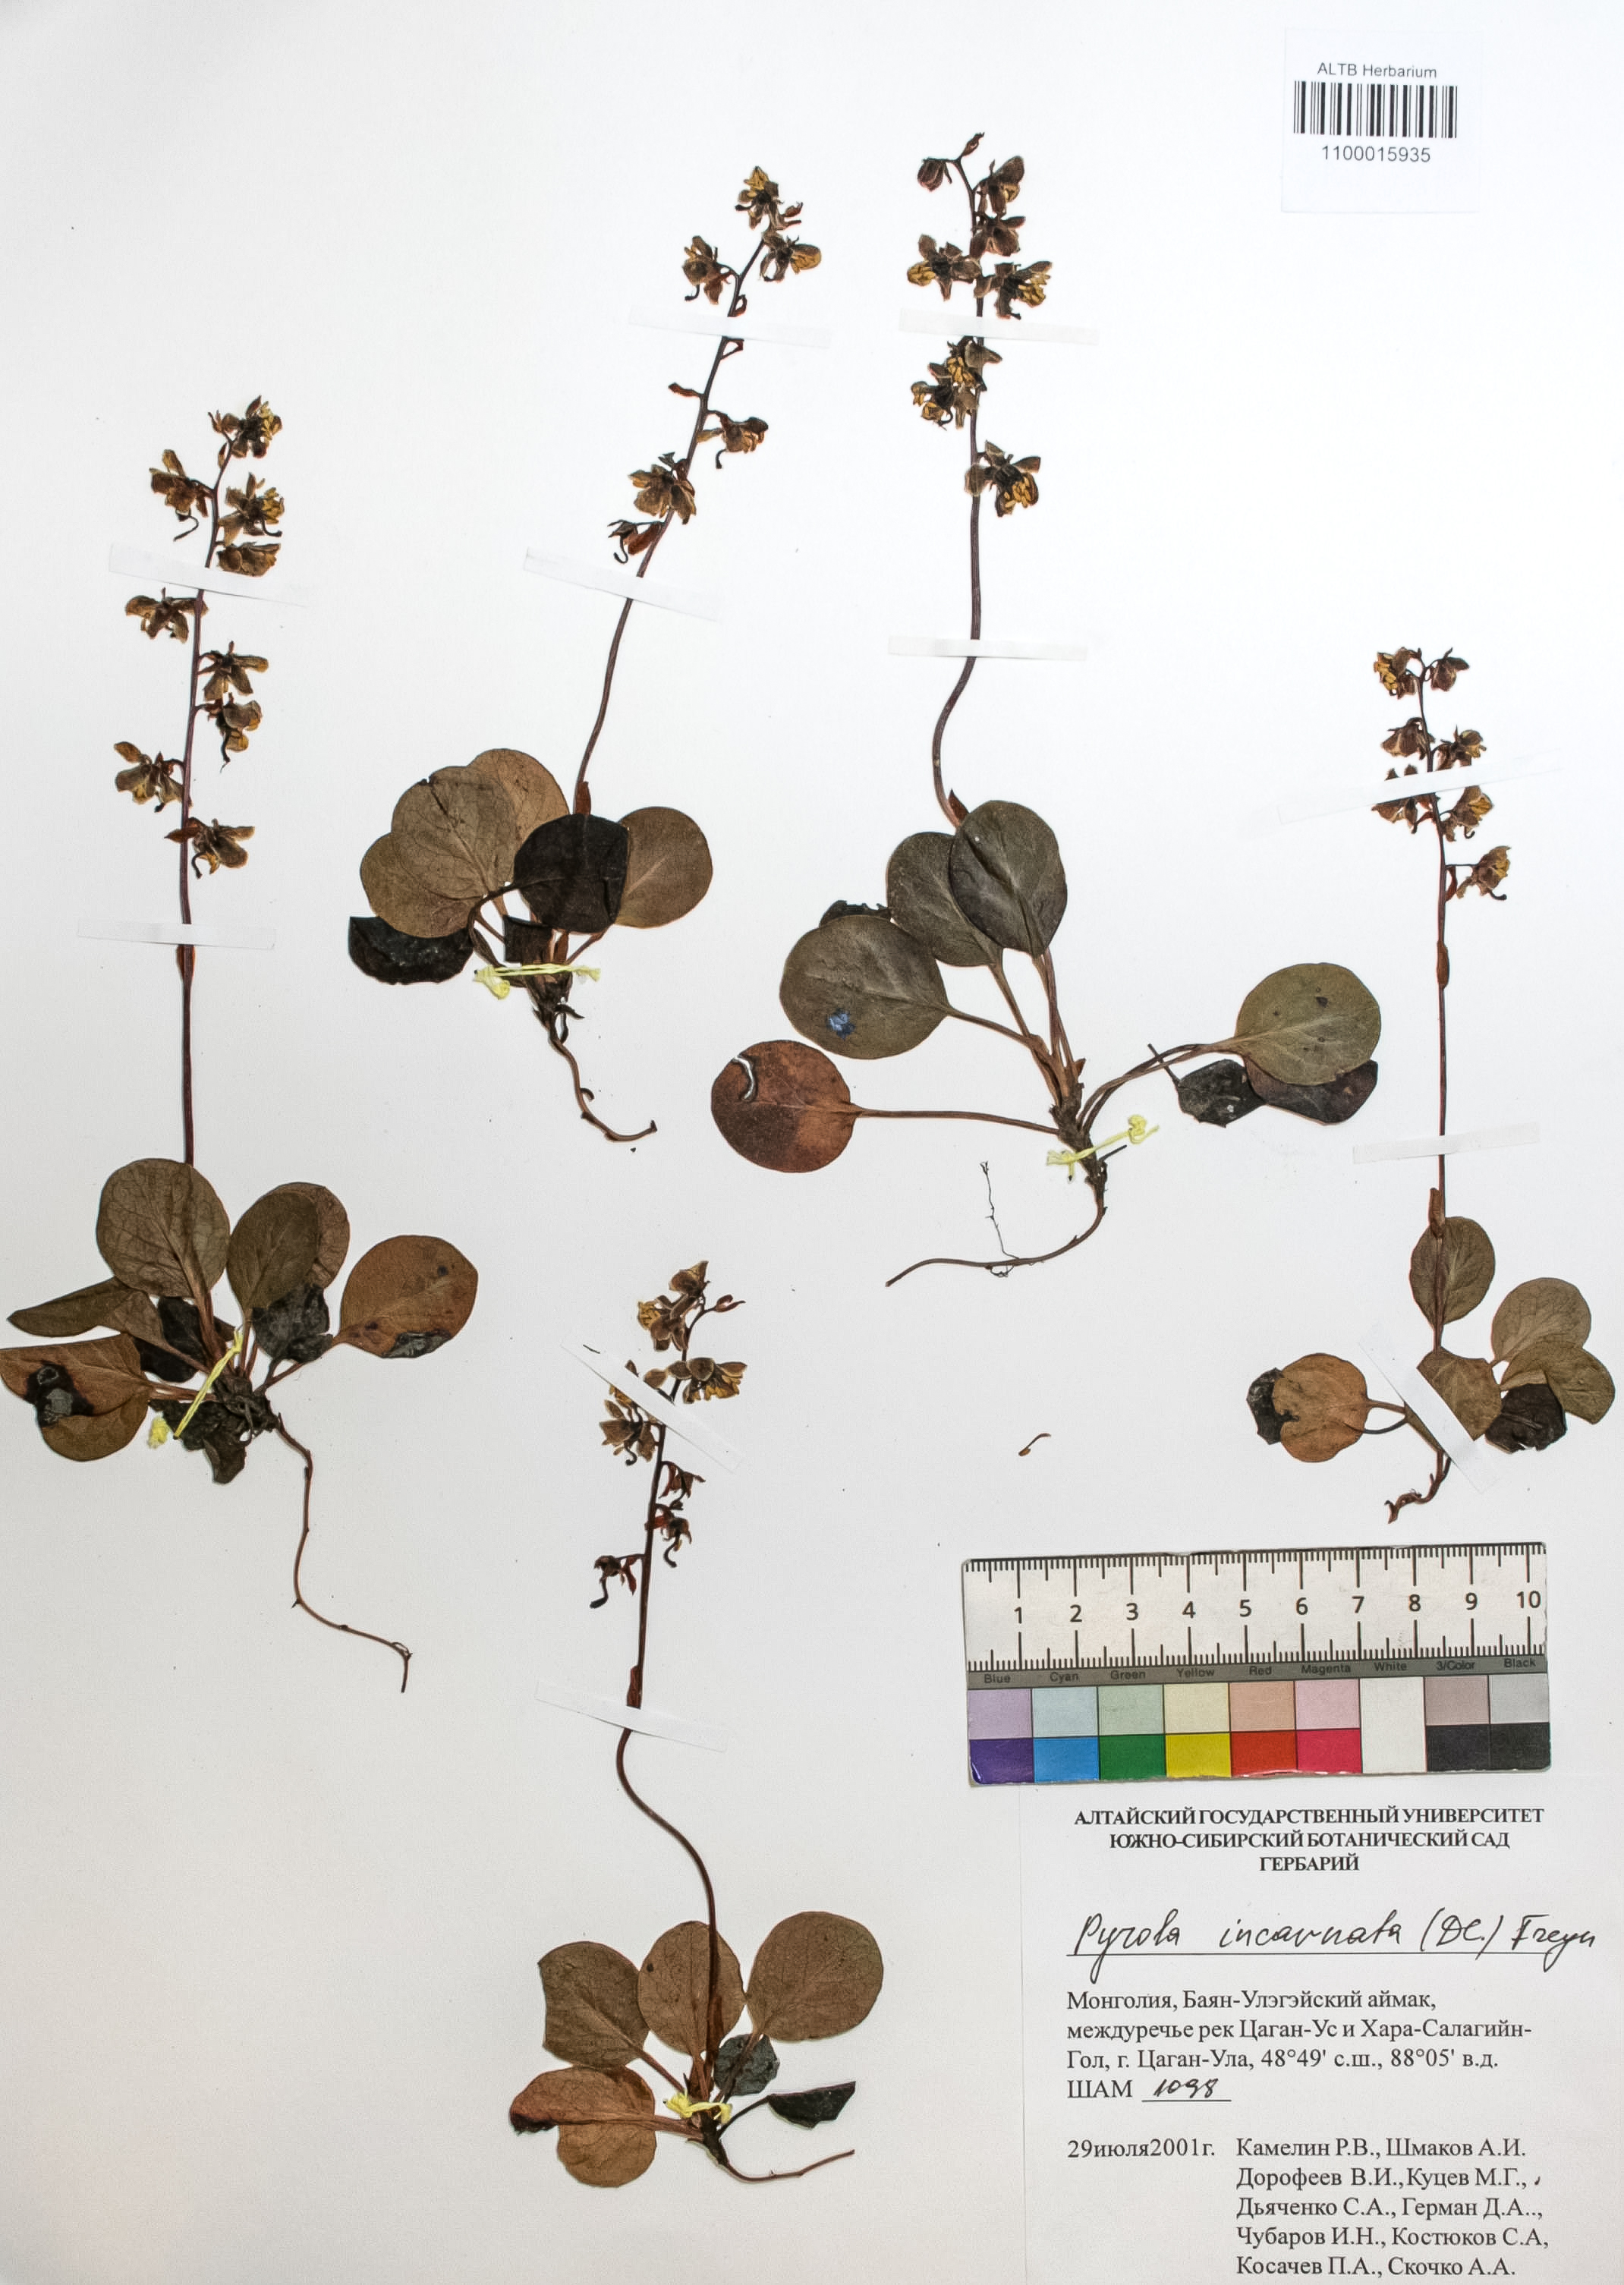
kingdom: Plantae
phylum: Tracheophyta
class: Magnoliopsida
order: Ericales
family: Ericaceae
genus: Pyrola
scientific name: Pyrola asarifolia
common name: Bog wintergreen
